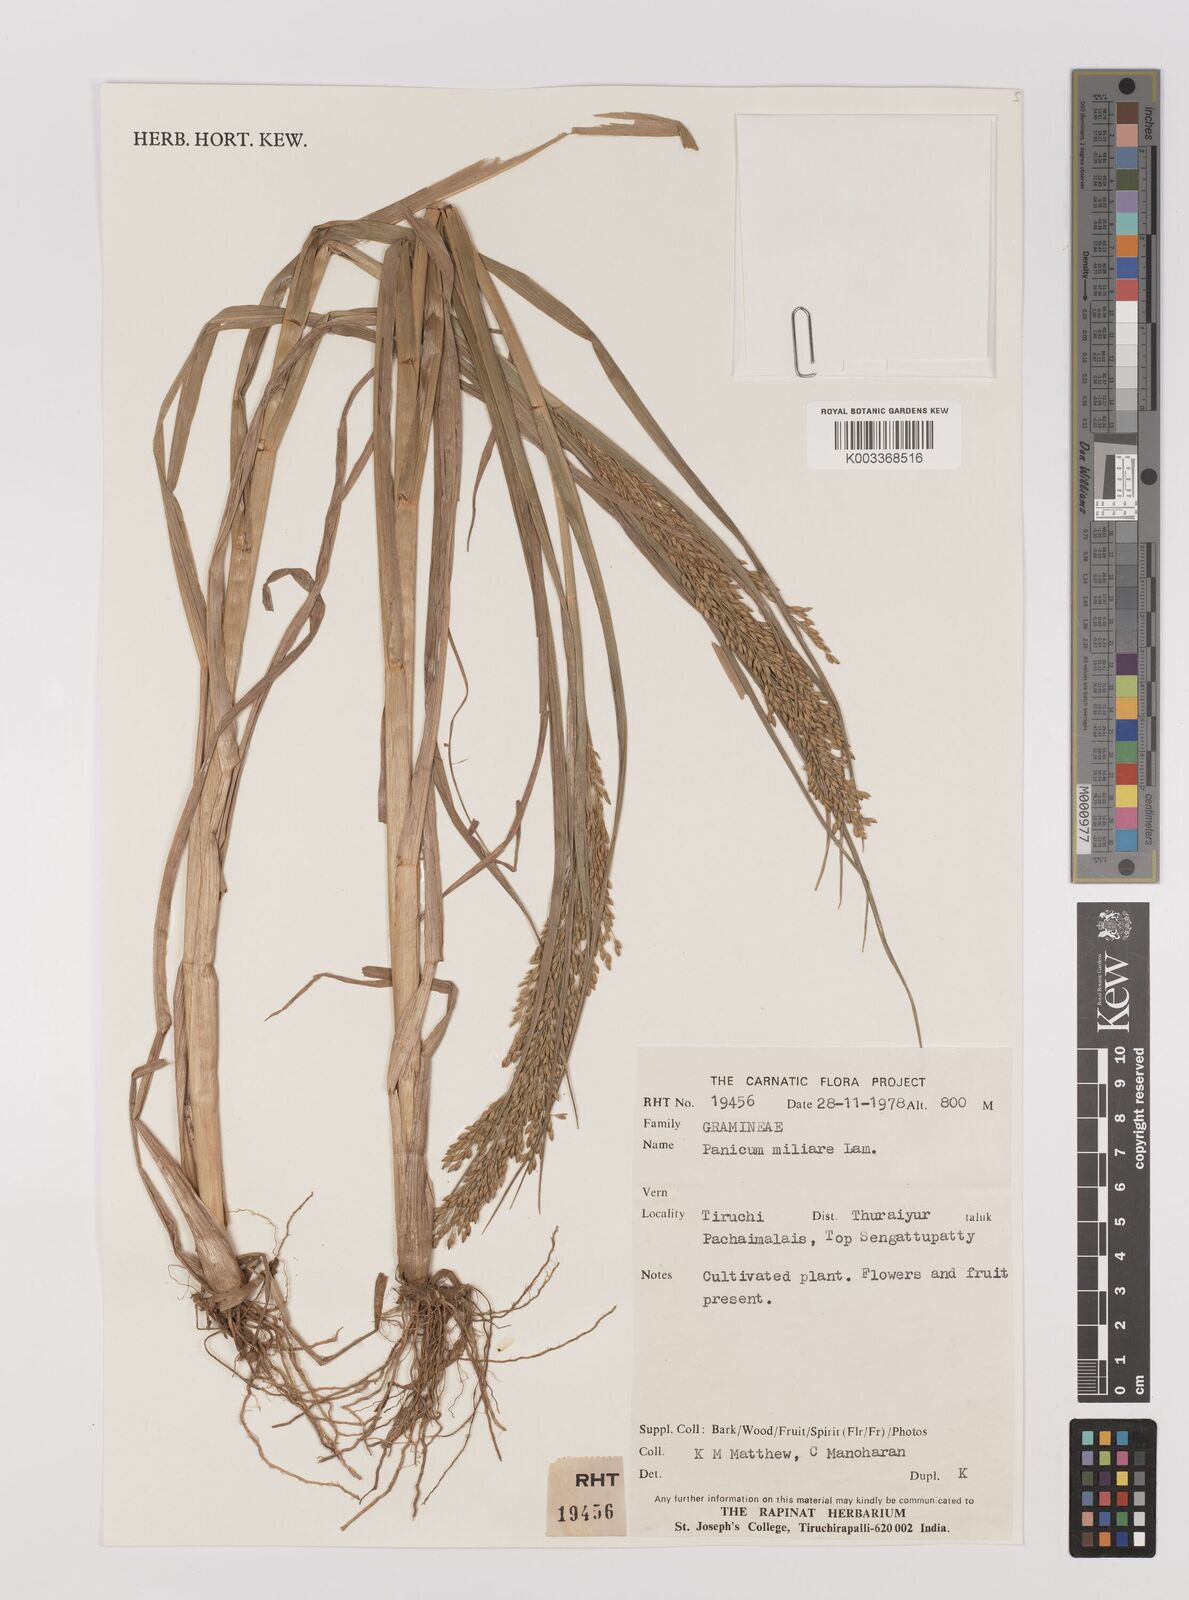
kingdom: Plantae
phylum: Tracheophyta
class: Liliopsida
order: Poales
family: Poaceae
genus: Panicum
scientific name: Panicum sumatrense
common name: Little millet
